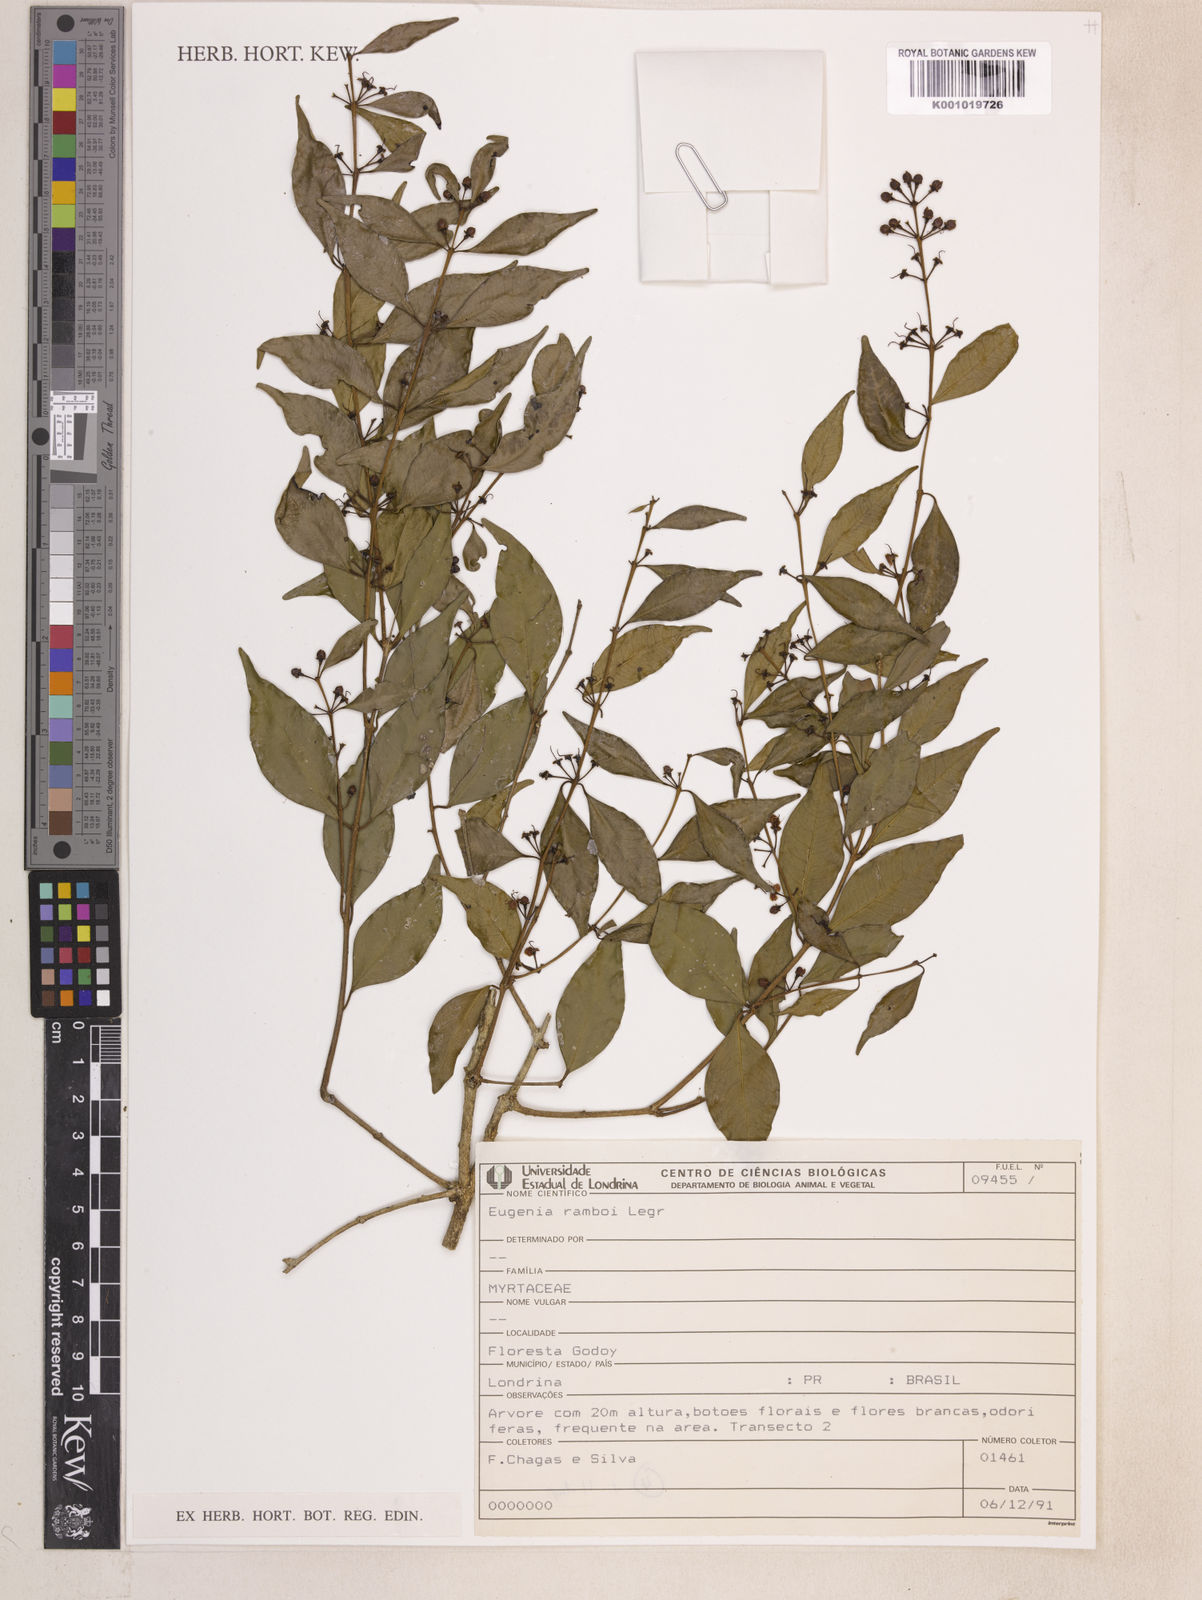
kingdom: Plantae
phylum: Tracheophyta
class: Magnoliopsida
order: Myrtales
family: Myrtaceae
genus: Eugenia
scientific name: Eugenia ramboi
